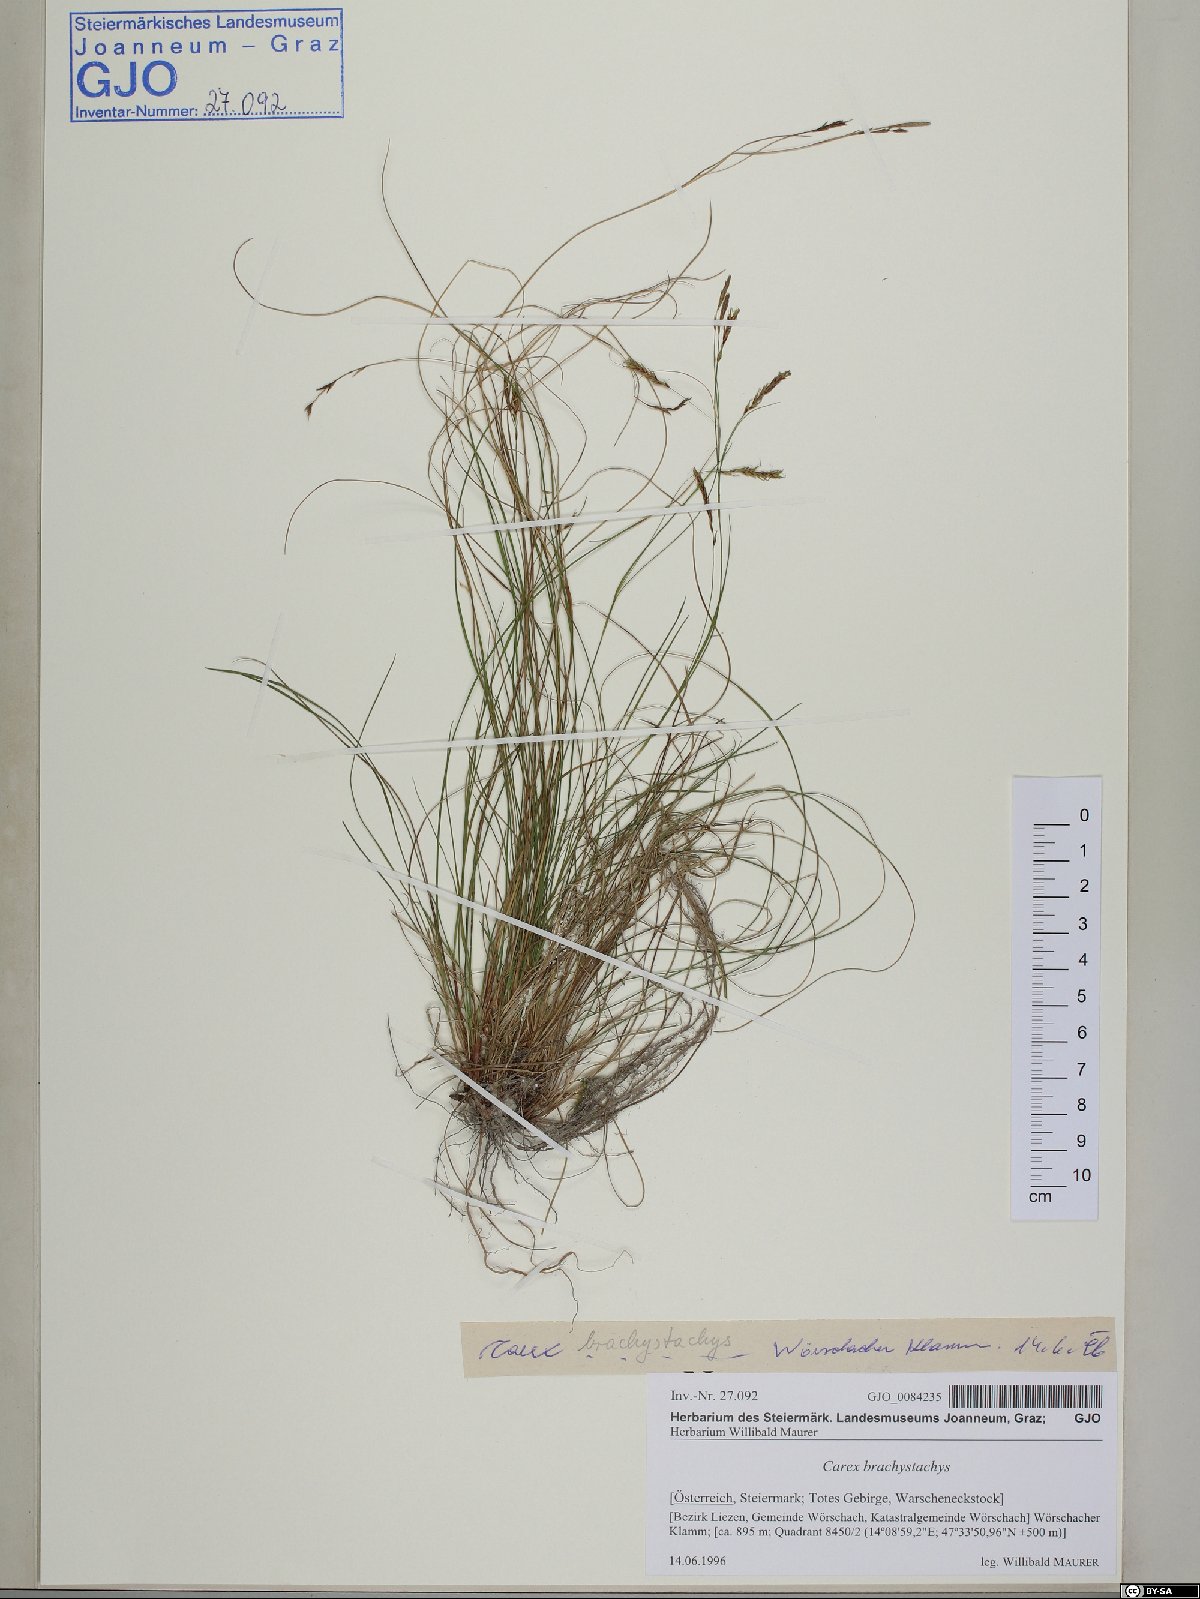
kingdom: Plantae
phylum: Tracheophyta
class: Liliopsida
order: Poales
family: Cyperaceae
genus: Carex
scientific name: Carex brachystachys
